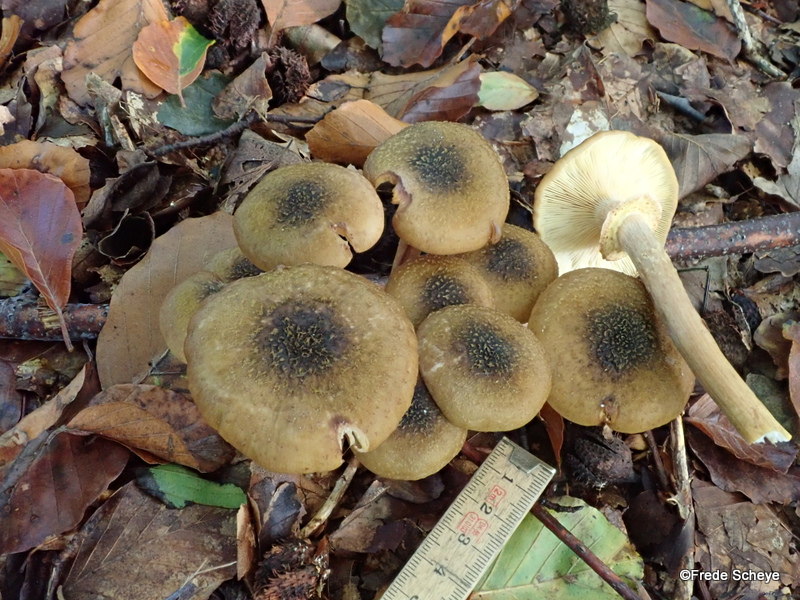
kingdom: Fungi
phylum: Basidiomycota
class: Agaricomycetes
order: Agaricales
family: Physalacriaceae
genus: Armillaria
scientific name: Armillaria mellea
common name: ægte honningsvamp
